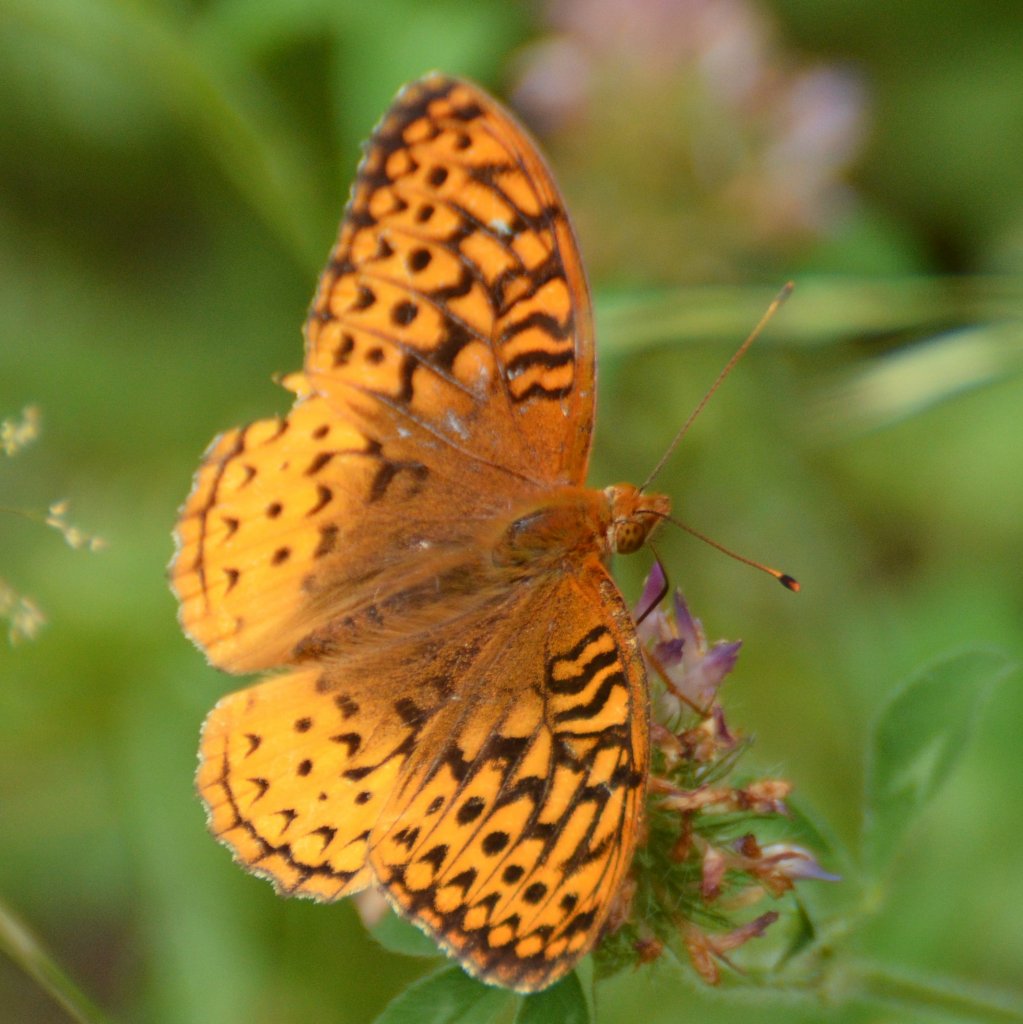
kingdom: Animalia
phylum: Arthropoda
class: Insecta
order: Lepidoptera
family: Nymphalidae
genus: Speyeria
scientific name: Speyeria cybele
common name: Great Spangled Fritillary
